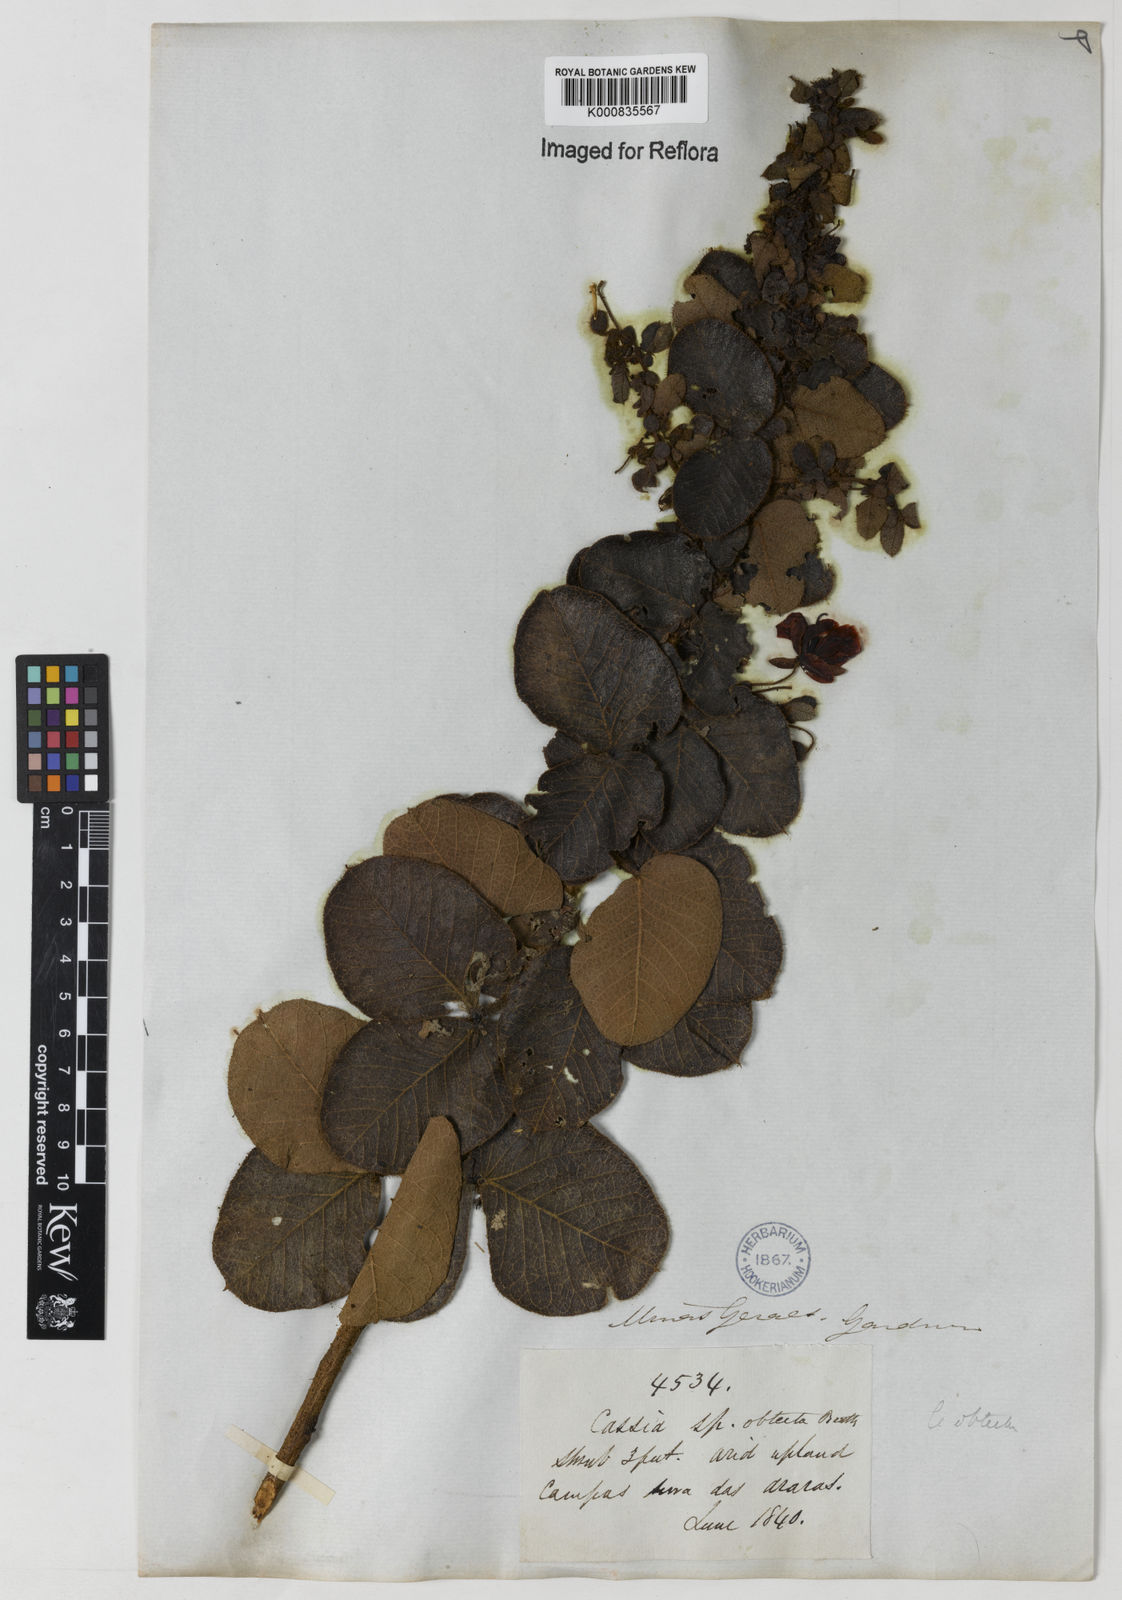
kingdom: Plantae
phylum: Tracheophyta
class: Magnoliopsida
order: Fabales
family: Fabaceae
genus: Chamaecrista
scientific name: Chamaecrista obtecta
